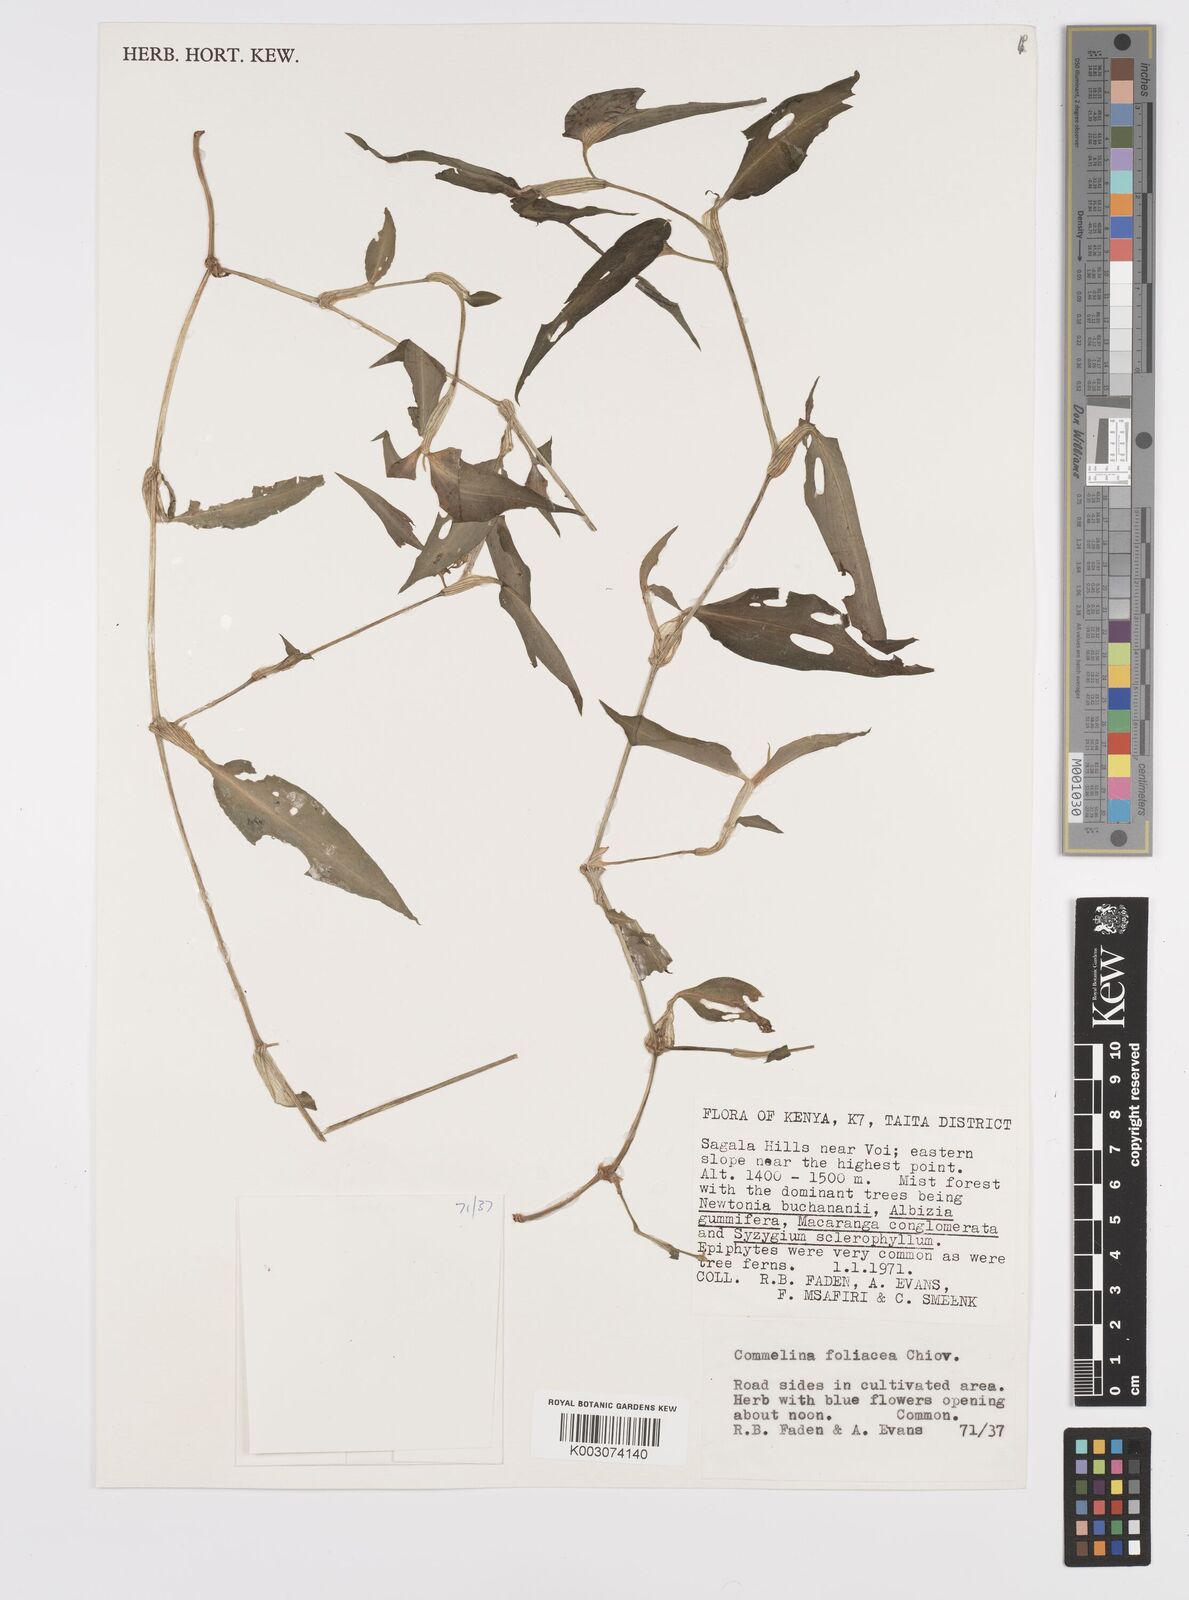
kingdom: Plantae
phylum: Tracheophyta
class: Liliopsida
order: Commelinales
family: Commelinaceae
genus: Commelina
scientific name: Commelina foliacea
